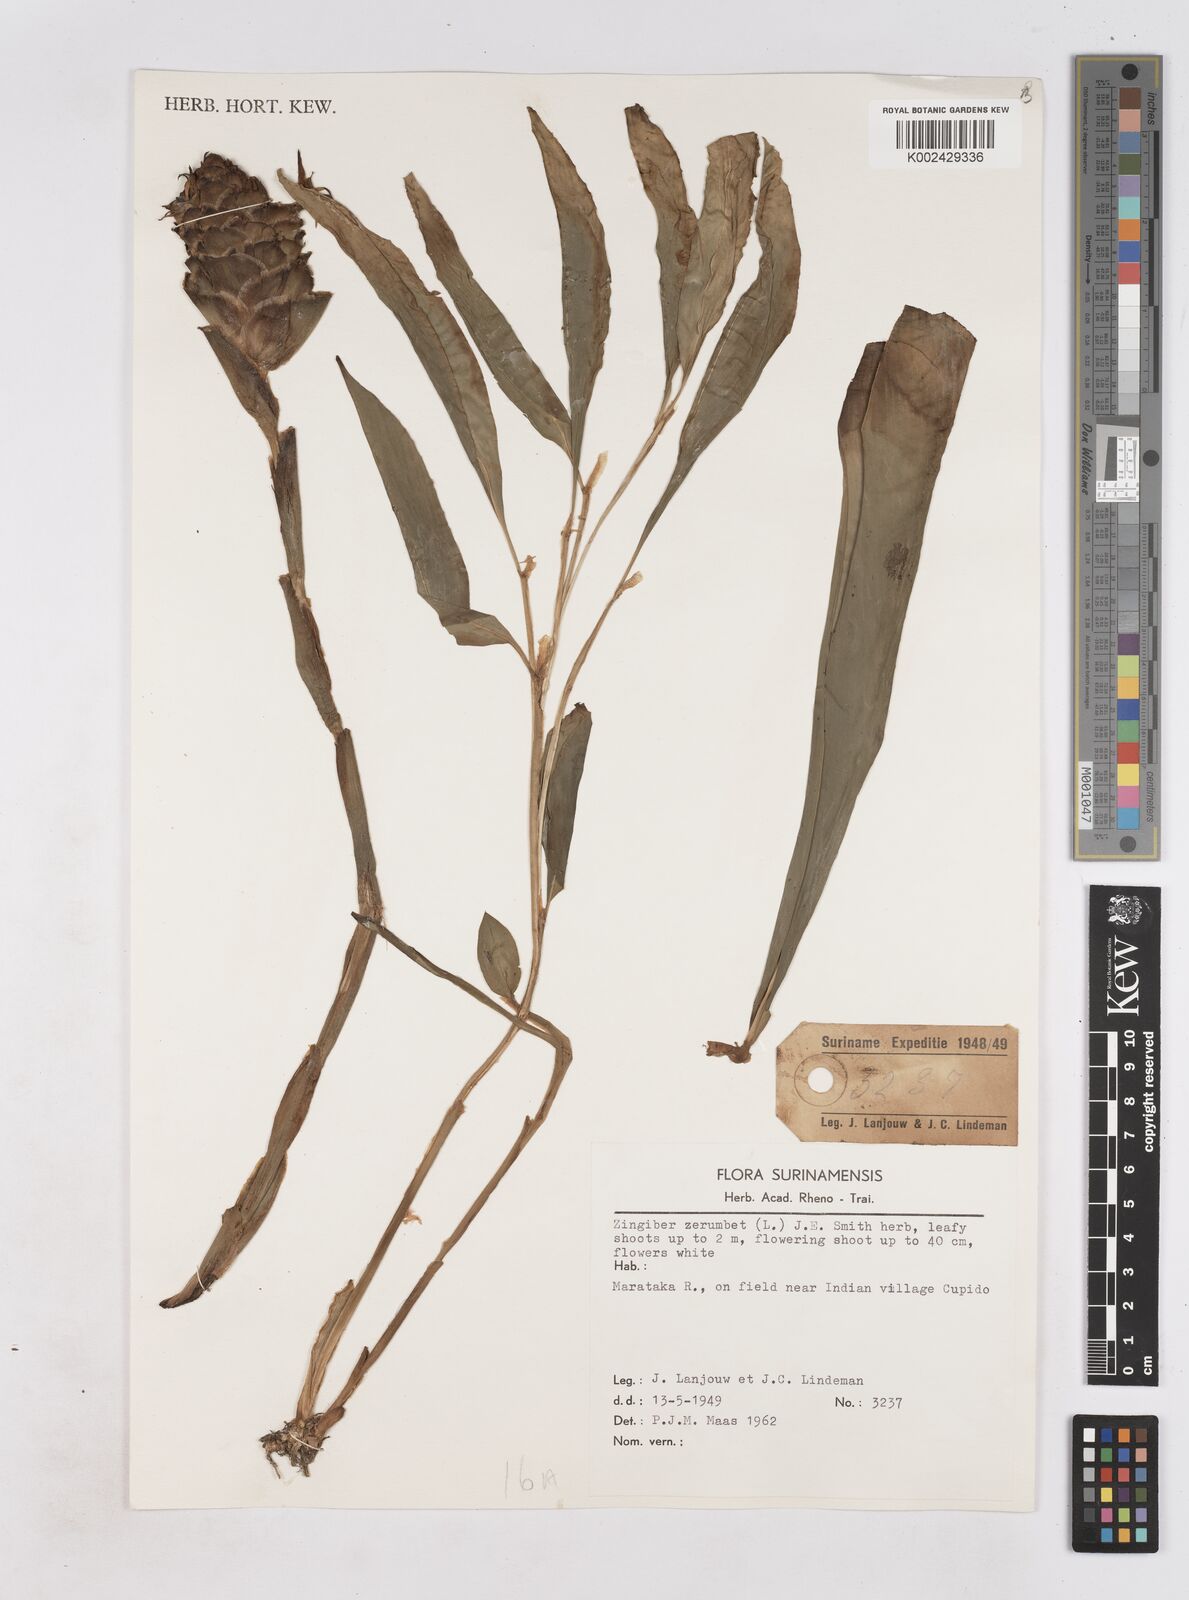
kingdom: Plantae
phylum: Tracheophyta
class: Liliopsida
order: Zingiberales
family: Zingiberaceae
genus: Zingiber
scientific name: Zingiber zerumbet
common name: Bitter ginger
